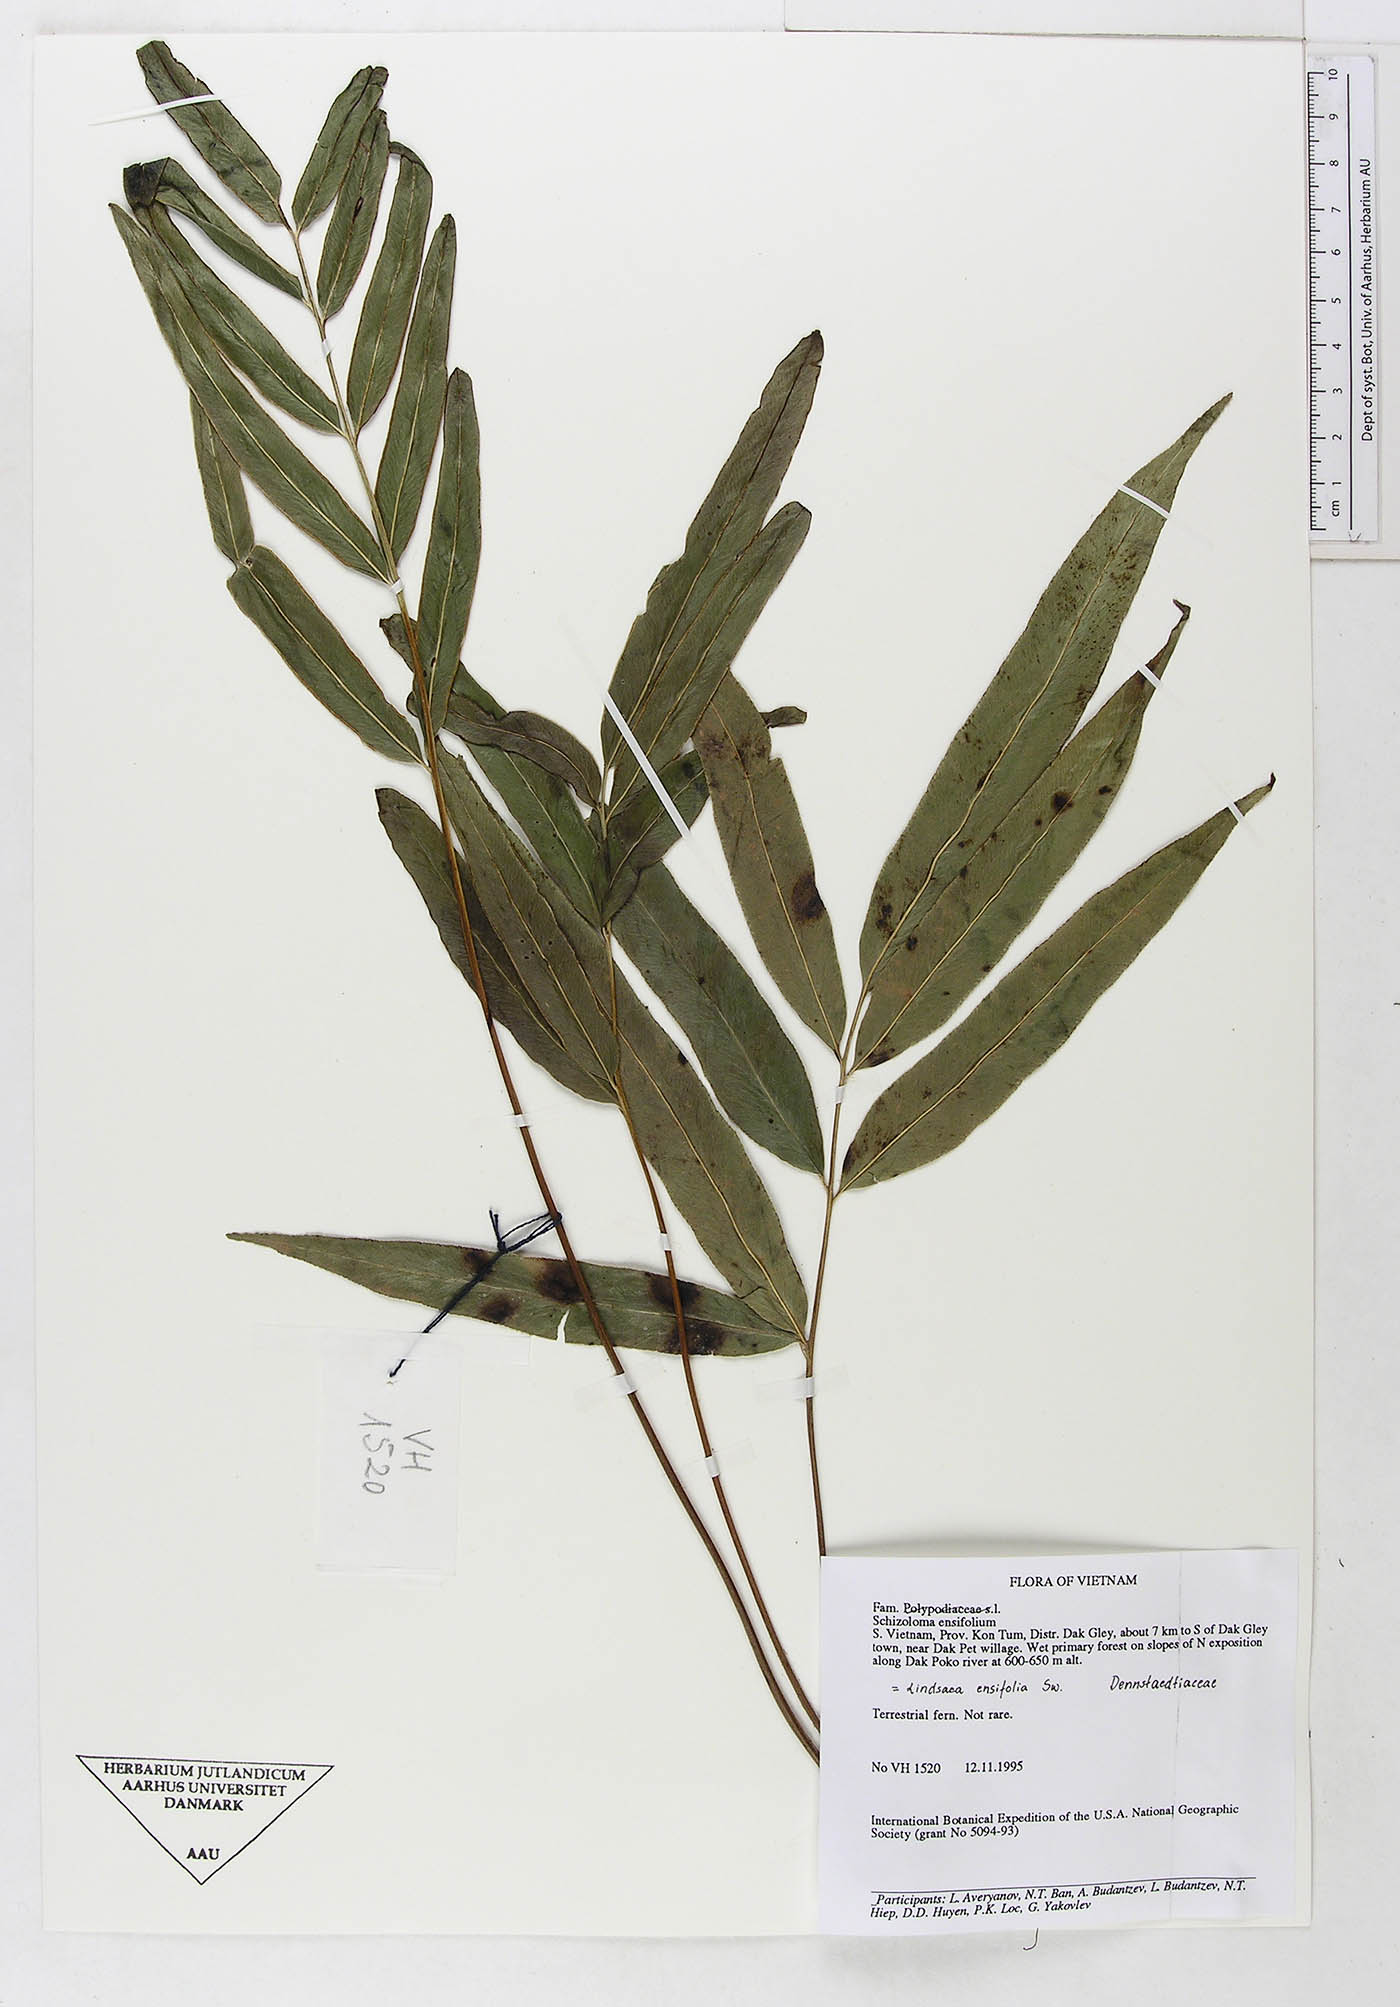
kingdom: Plantae
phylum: Tracheophyta
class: Polypodiopsida
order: Polypodiales
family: Lindsaeaceae
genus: Lindsaea
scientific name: Lindsaea ensifolia
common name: Graceful necklace fern
